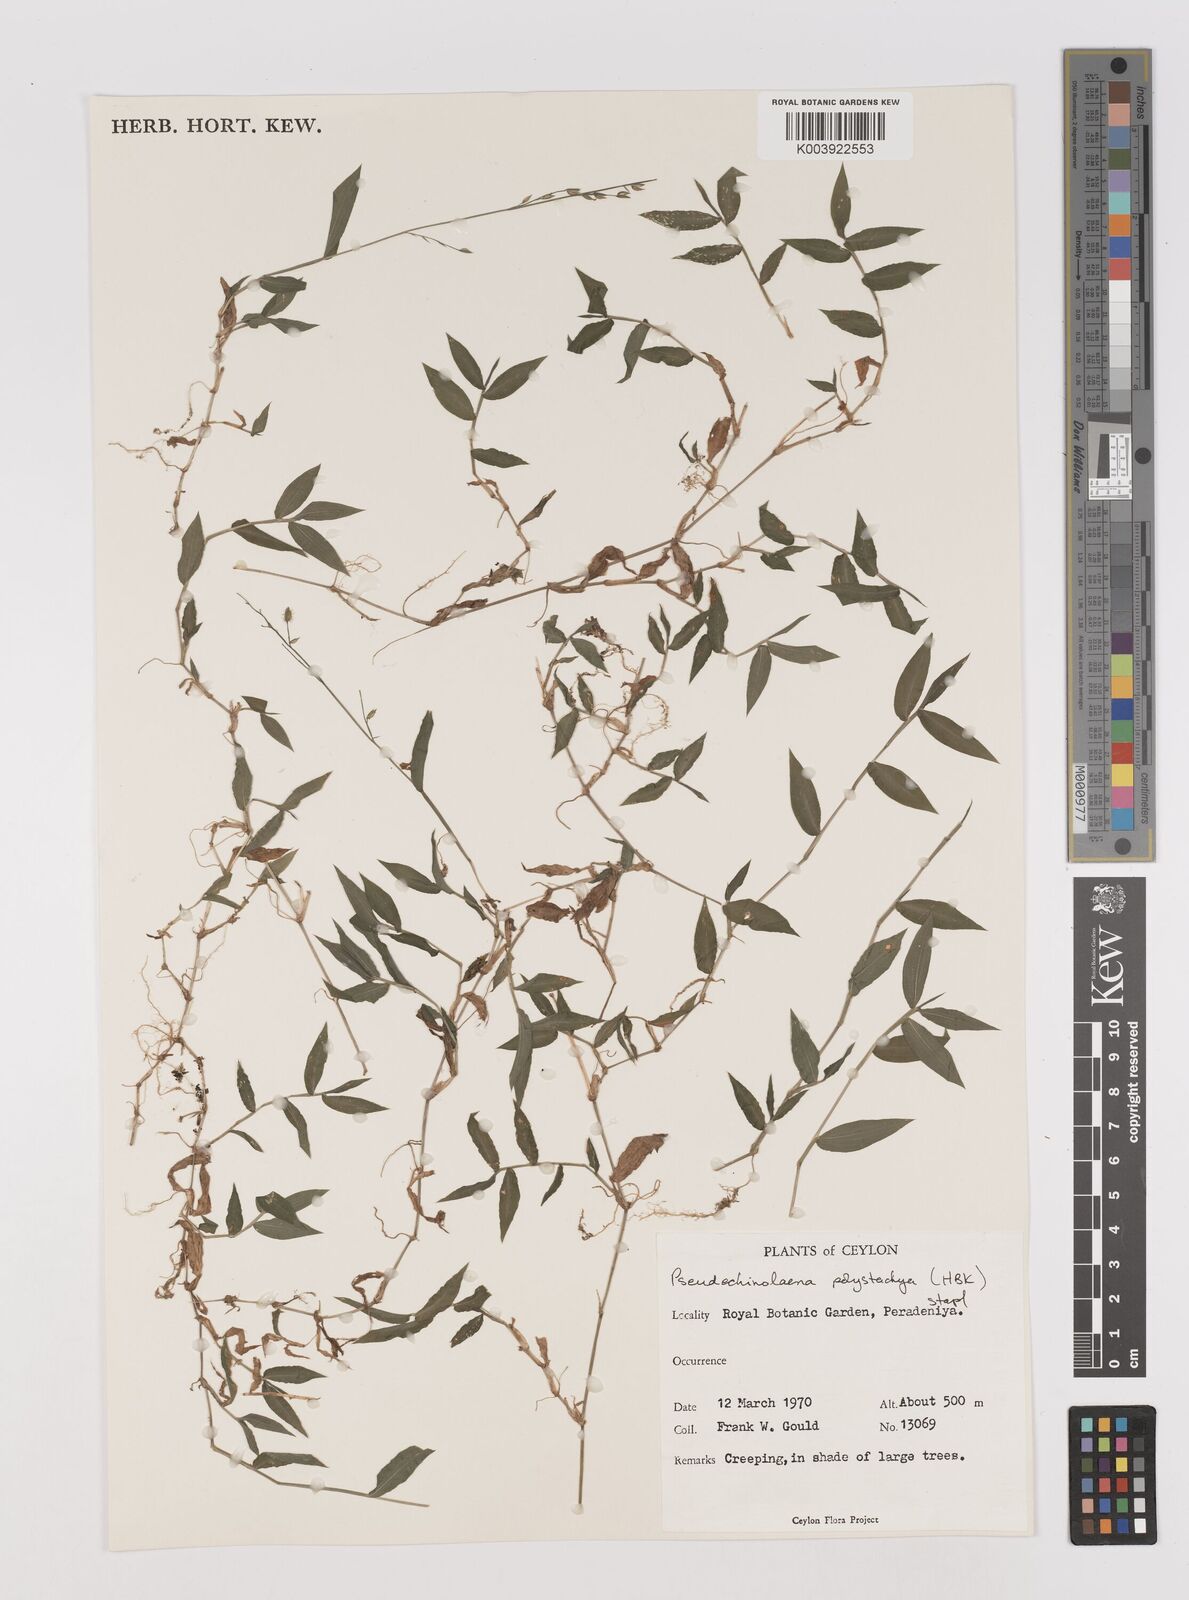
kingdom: Plantae
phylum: Tracheophyta
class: Liliopsida
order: Poales
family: Poaceae
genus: Pseudechinolaena
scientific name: Pseudechinolaena polystachya
